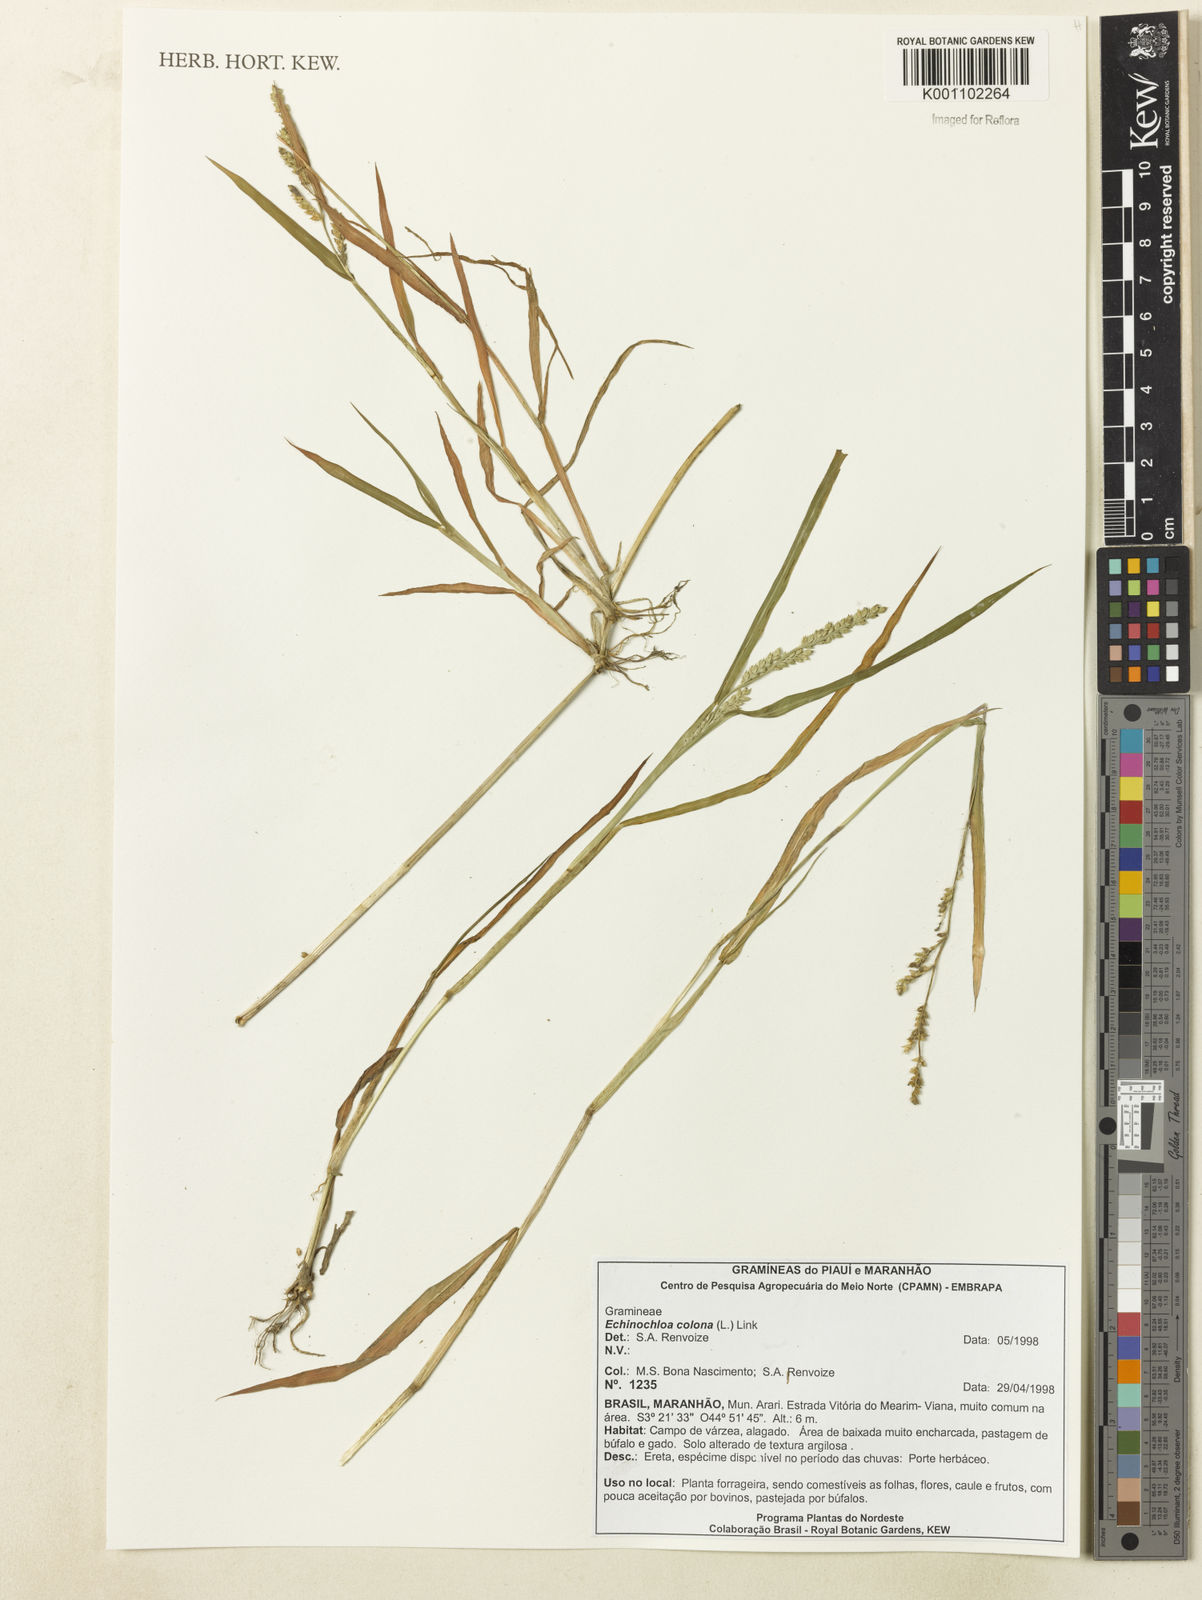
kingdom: Plantae
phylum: Tracheophyta
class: Liliopsida
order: Poales
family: Poaceae
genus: Echinochloa
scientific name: Echinochloa colonum
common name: Jungle rice
